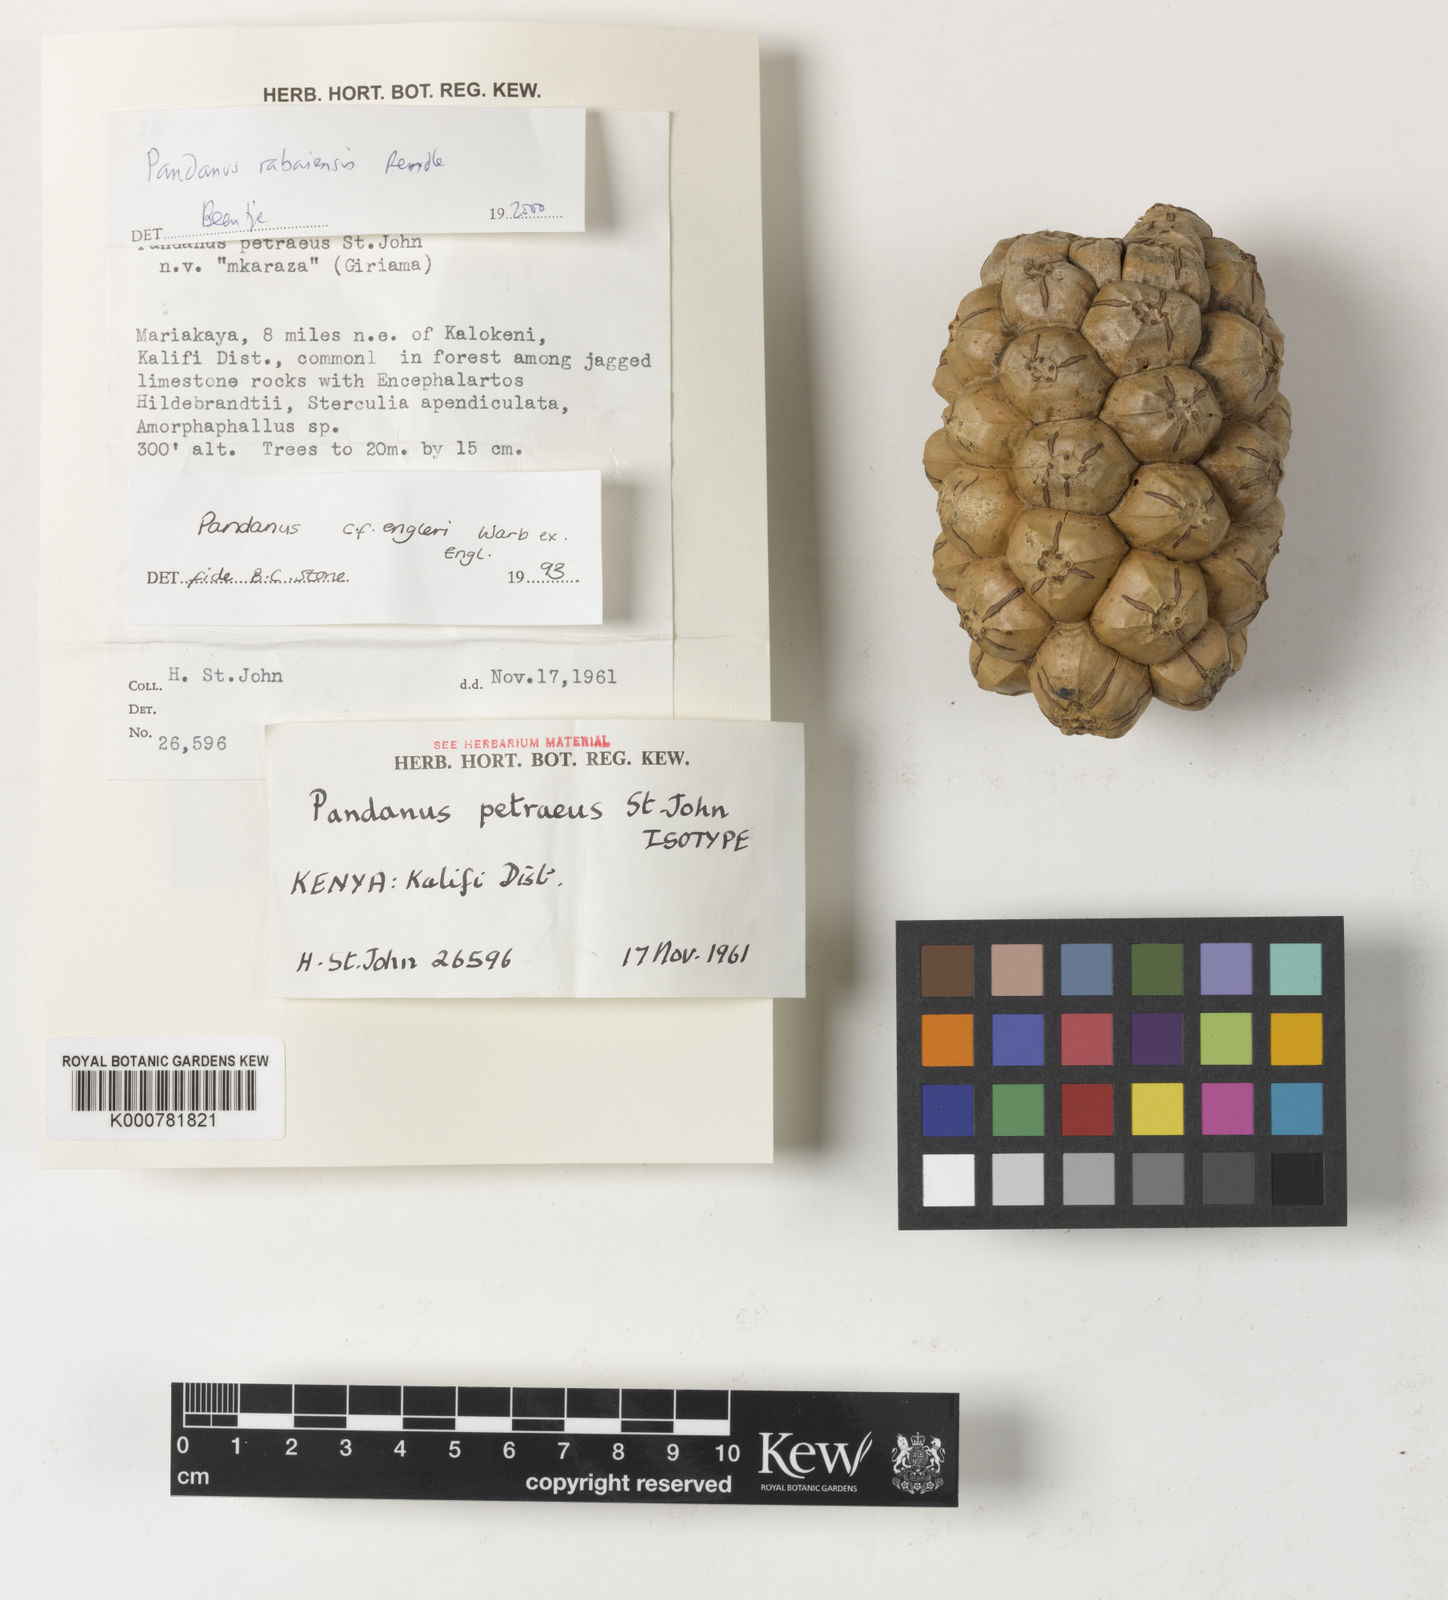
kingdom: Plantae
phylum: Tracheophyta
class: Liliopsida
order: Pandanales
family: Pandanaceae
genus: Pandanus
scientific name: Pandanus rabaiensis
